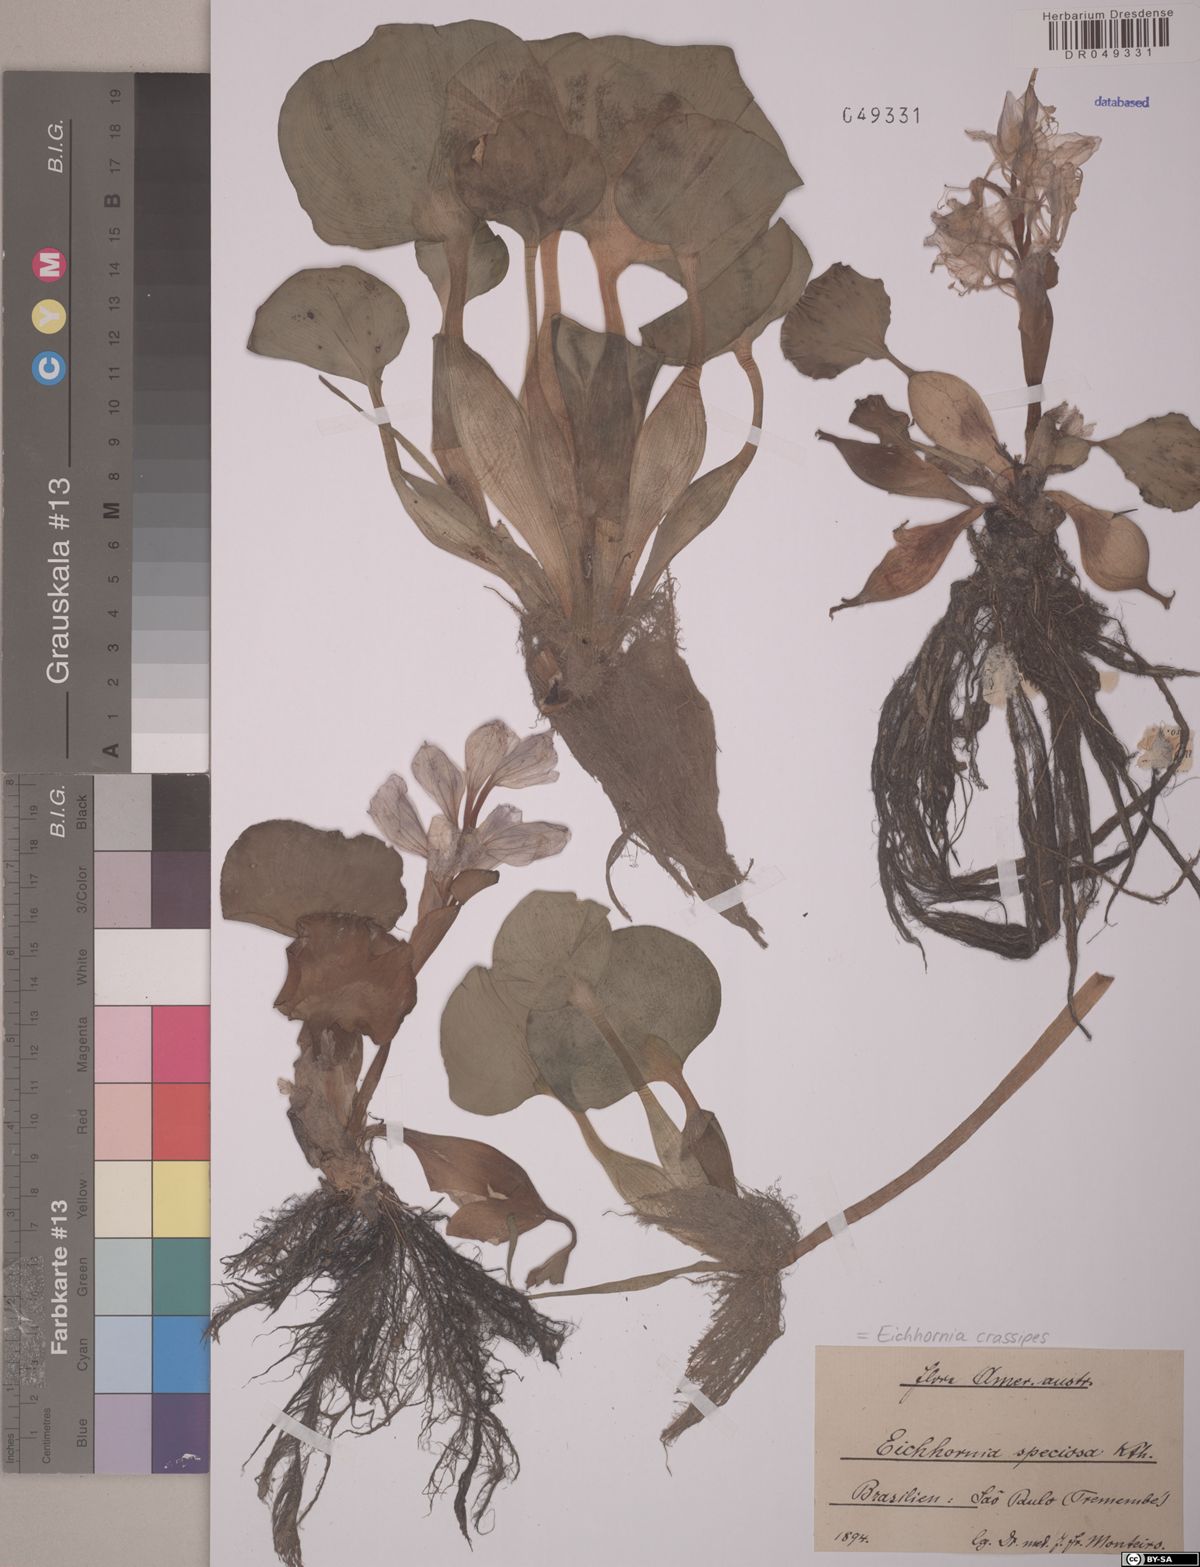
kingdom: Plantae
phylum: Tracheophyta
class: Liliopsida
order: Commelinales
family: Pontederiaceae
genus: Pontederia
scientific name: Pontederia crassipes
